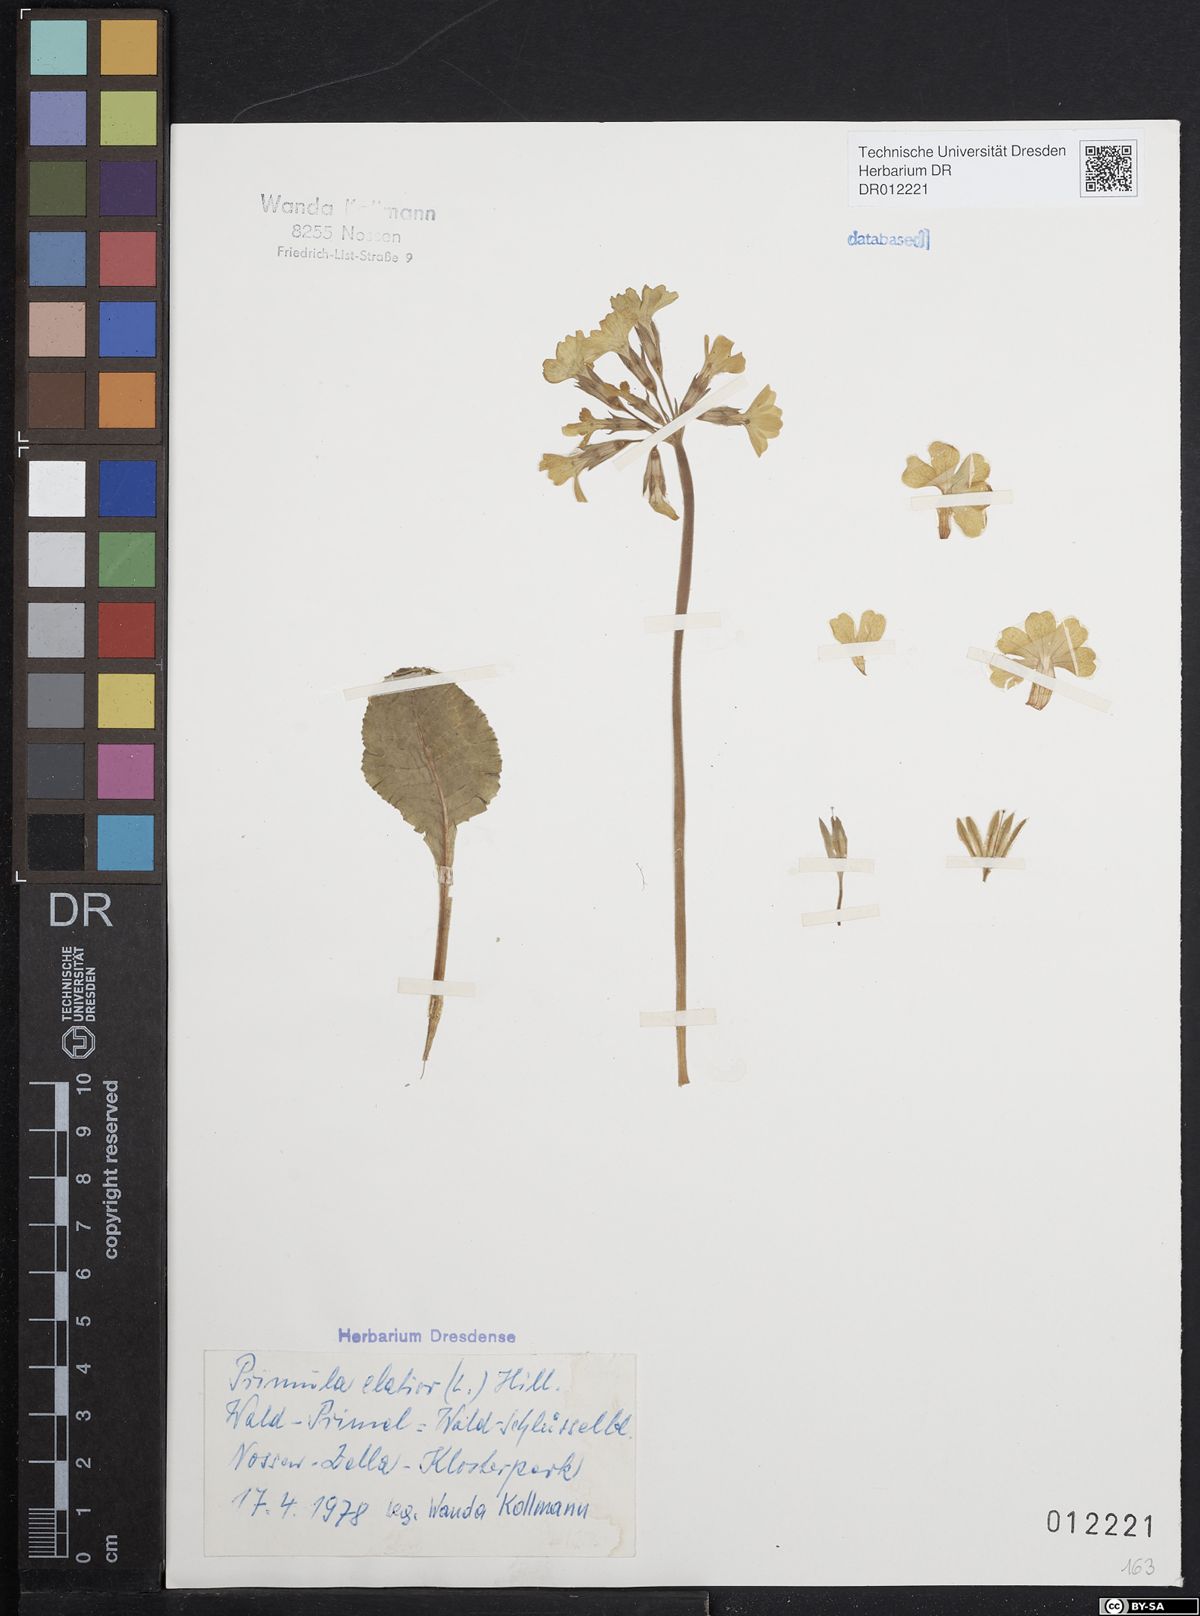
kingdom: Plantae
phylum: Tracheophyta
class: Magnoliopsida
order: Ericales
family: Primulaceae
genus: Primula
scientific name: Primula elatior
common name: Oxlip
